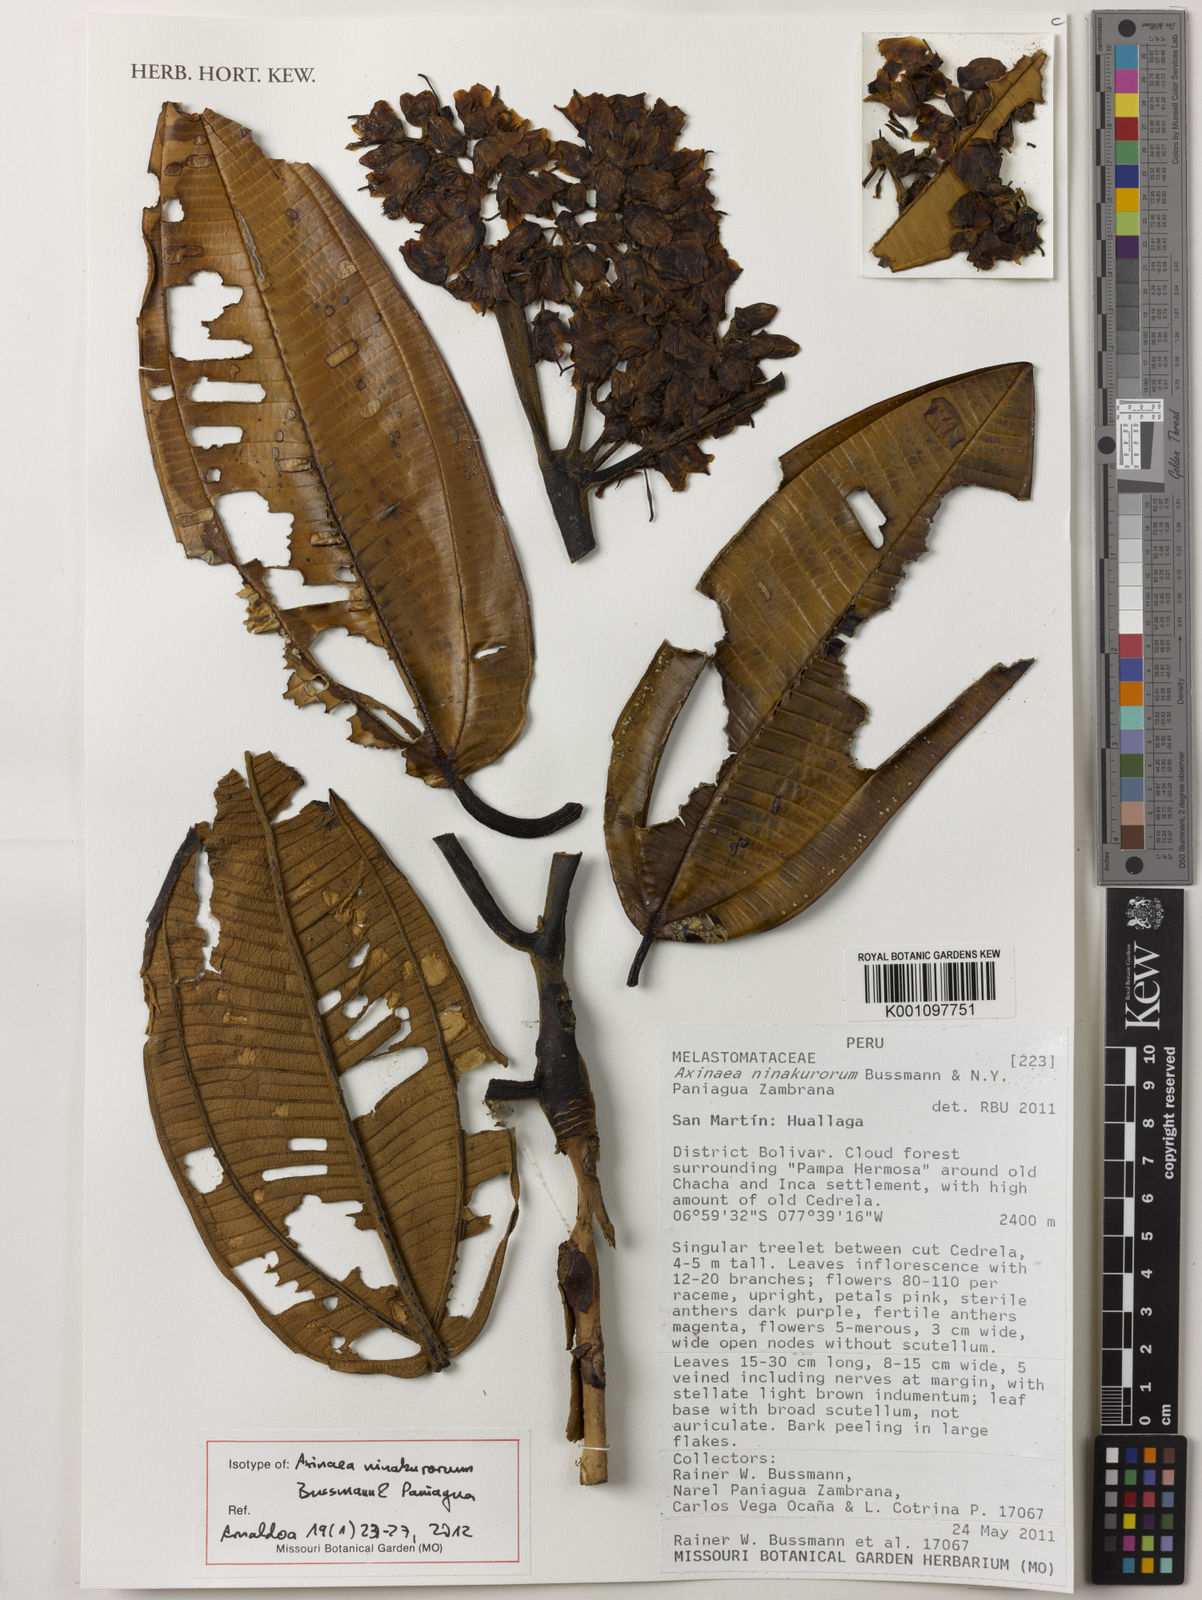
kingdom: Plantae
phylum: Tracheophyta
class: Magnoliopsida
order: Myrtales
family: Melastomataceae
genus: Axinaea
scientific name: Axinaea ninakurorum
